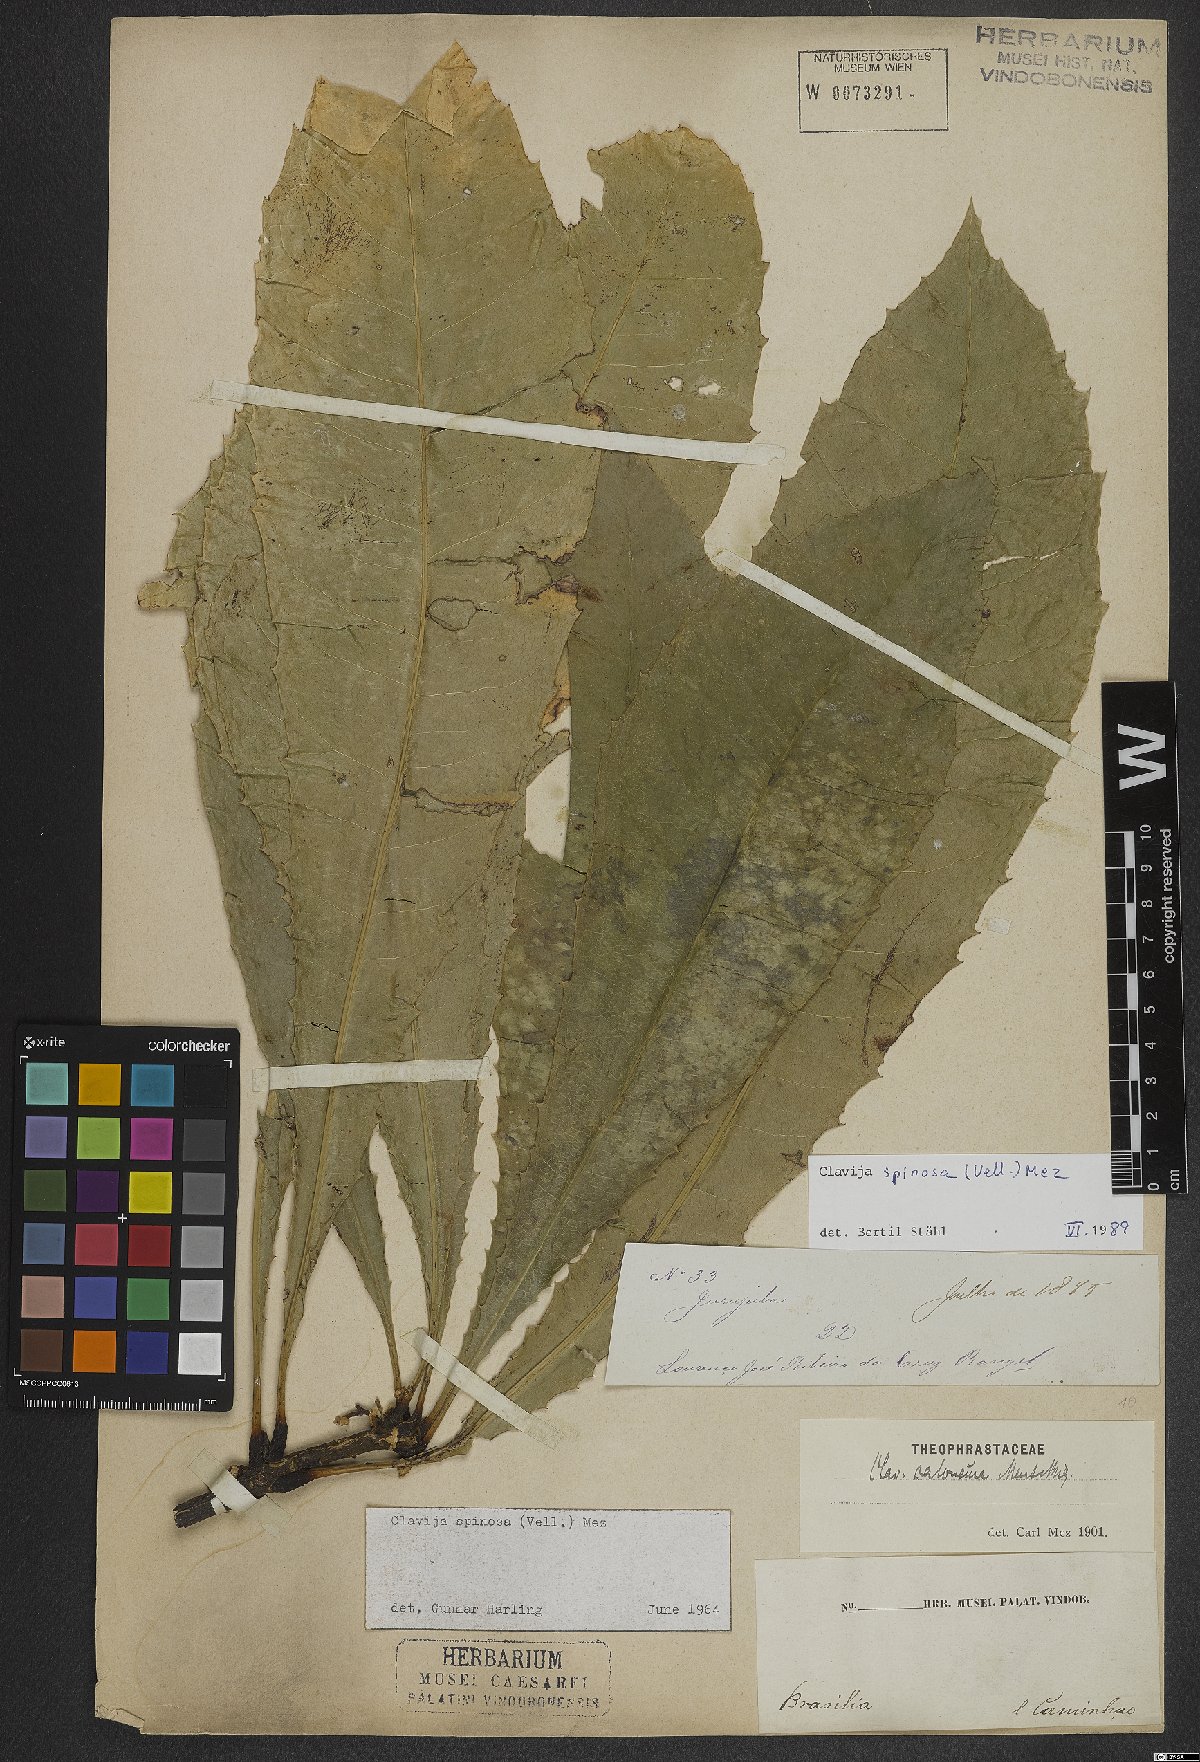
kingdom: Plantae
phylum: Tracheophyta
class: Magnoliopsida
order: Ericales
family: Primulaceae
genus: Clavija
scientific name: Clavija spinosa
